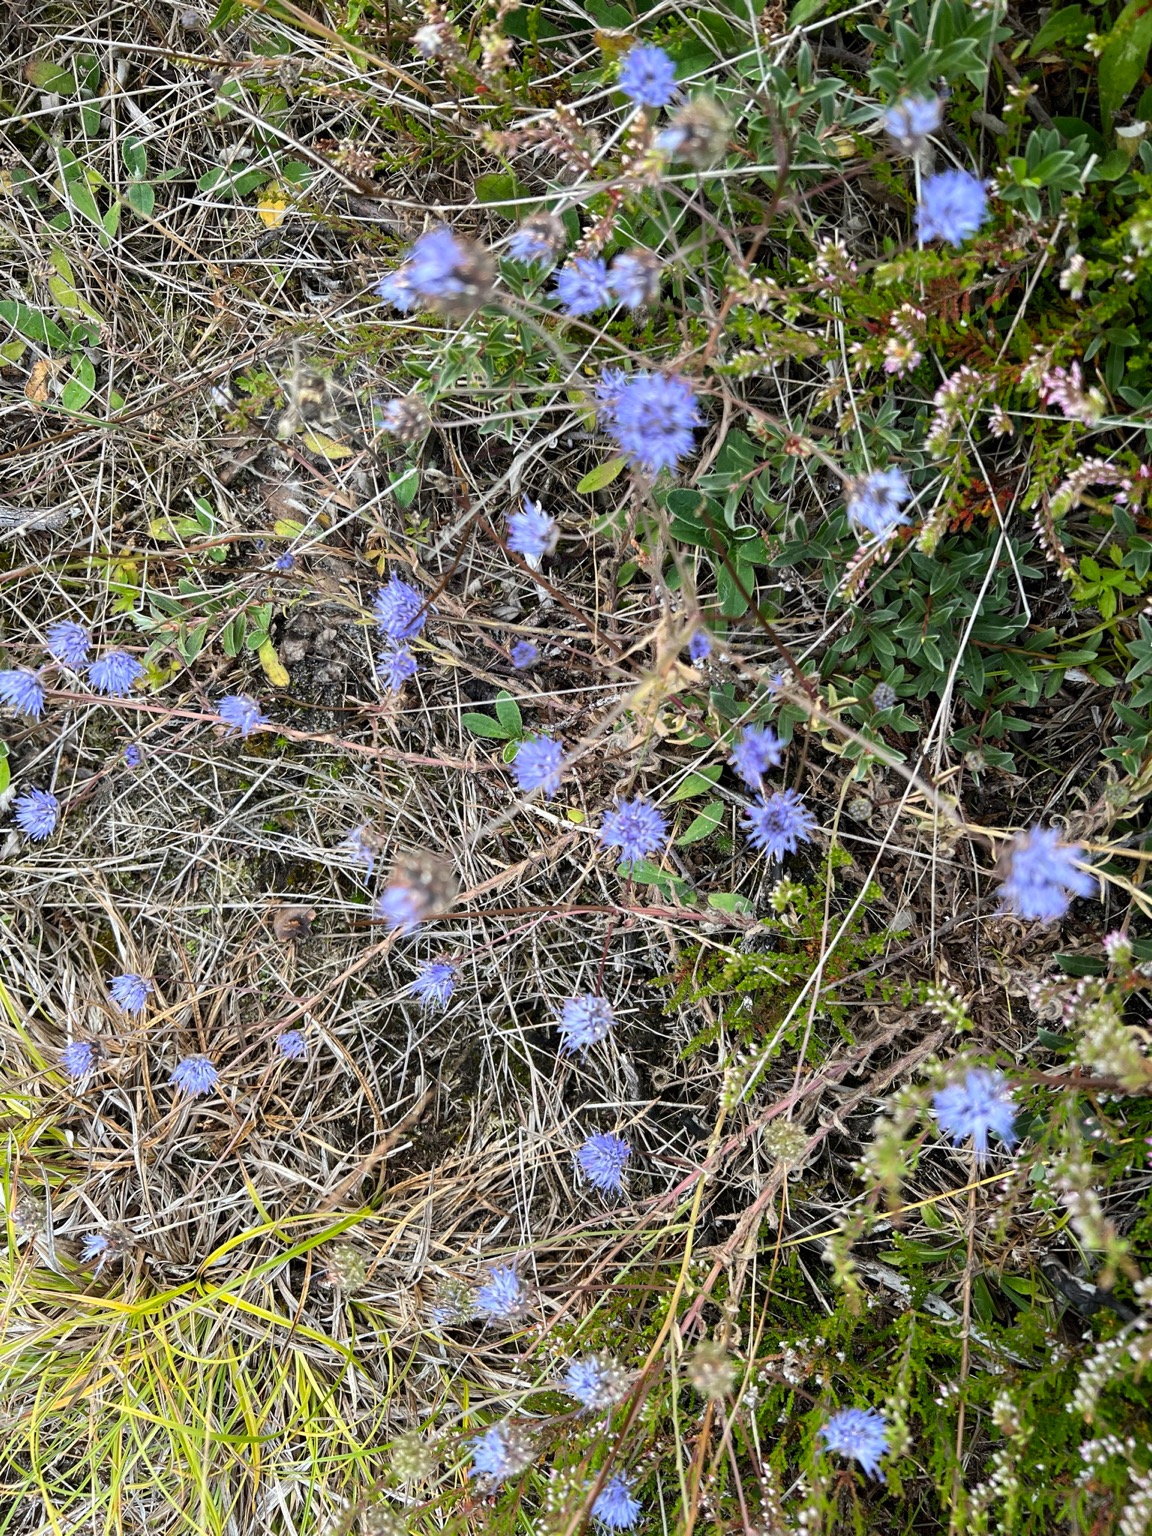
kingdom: Plantae
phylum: Tracheophyta
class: Magnoliopsida
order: Asterales
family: Campanulaceae
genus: Jasione
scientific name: Jasione montana
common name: Blåmunke
